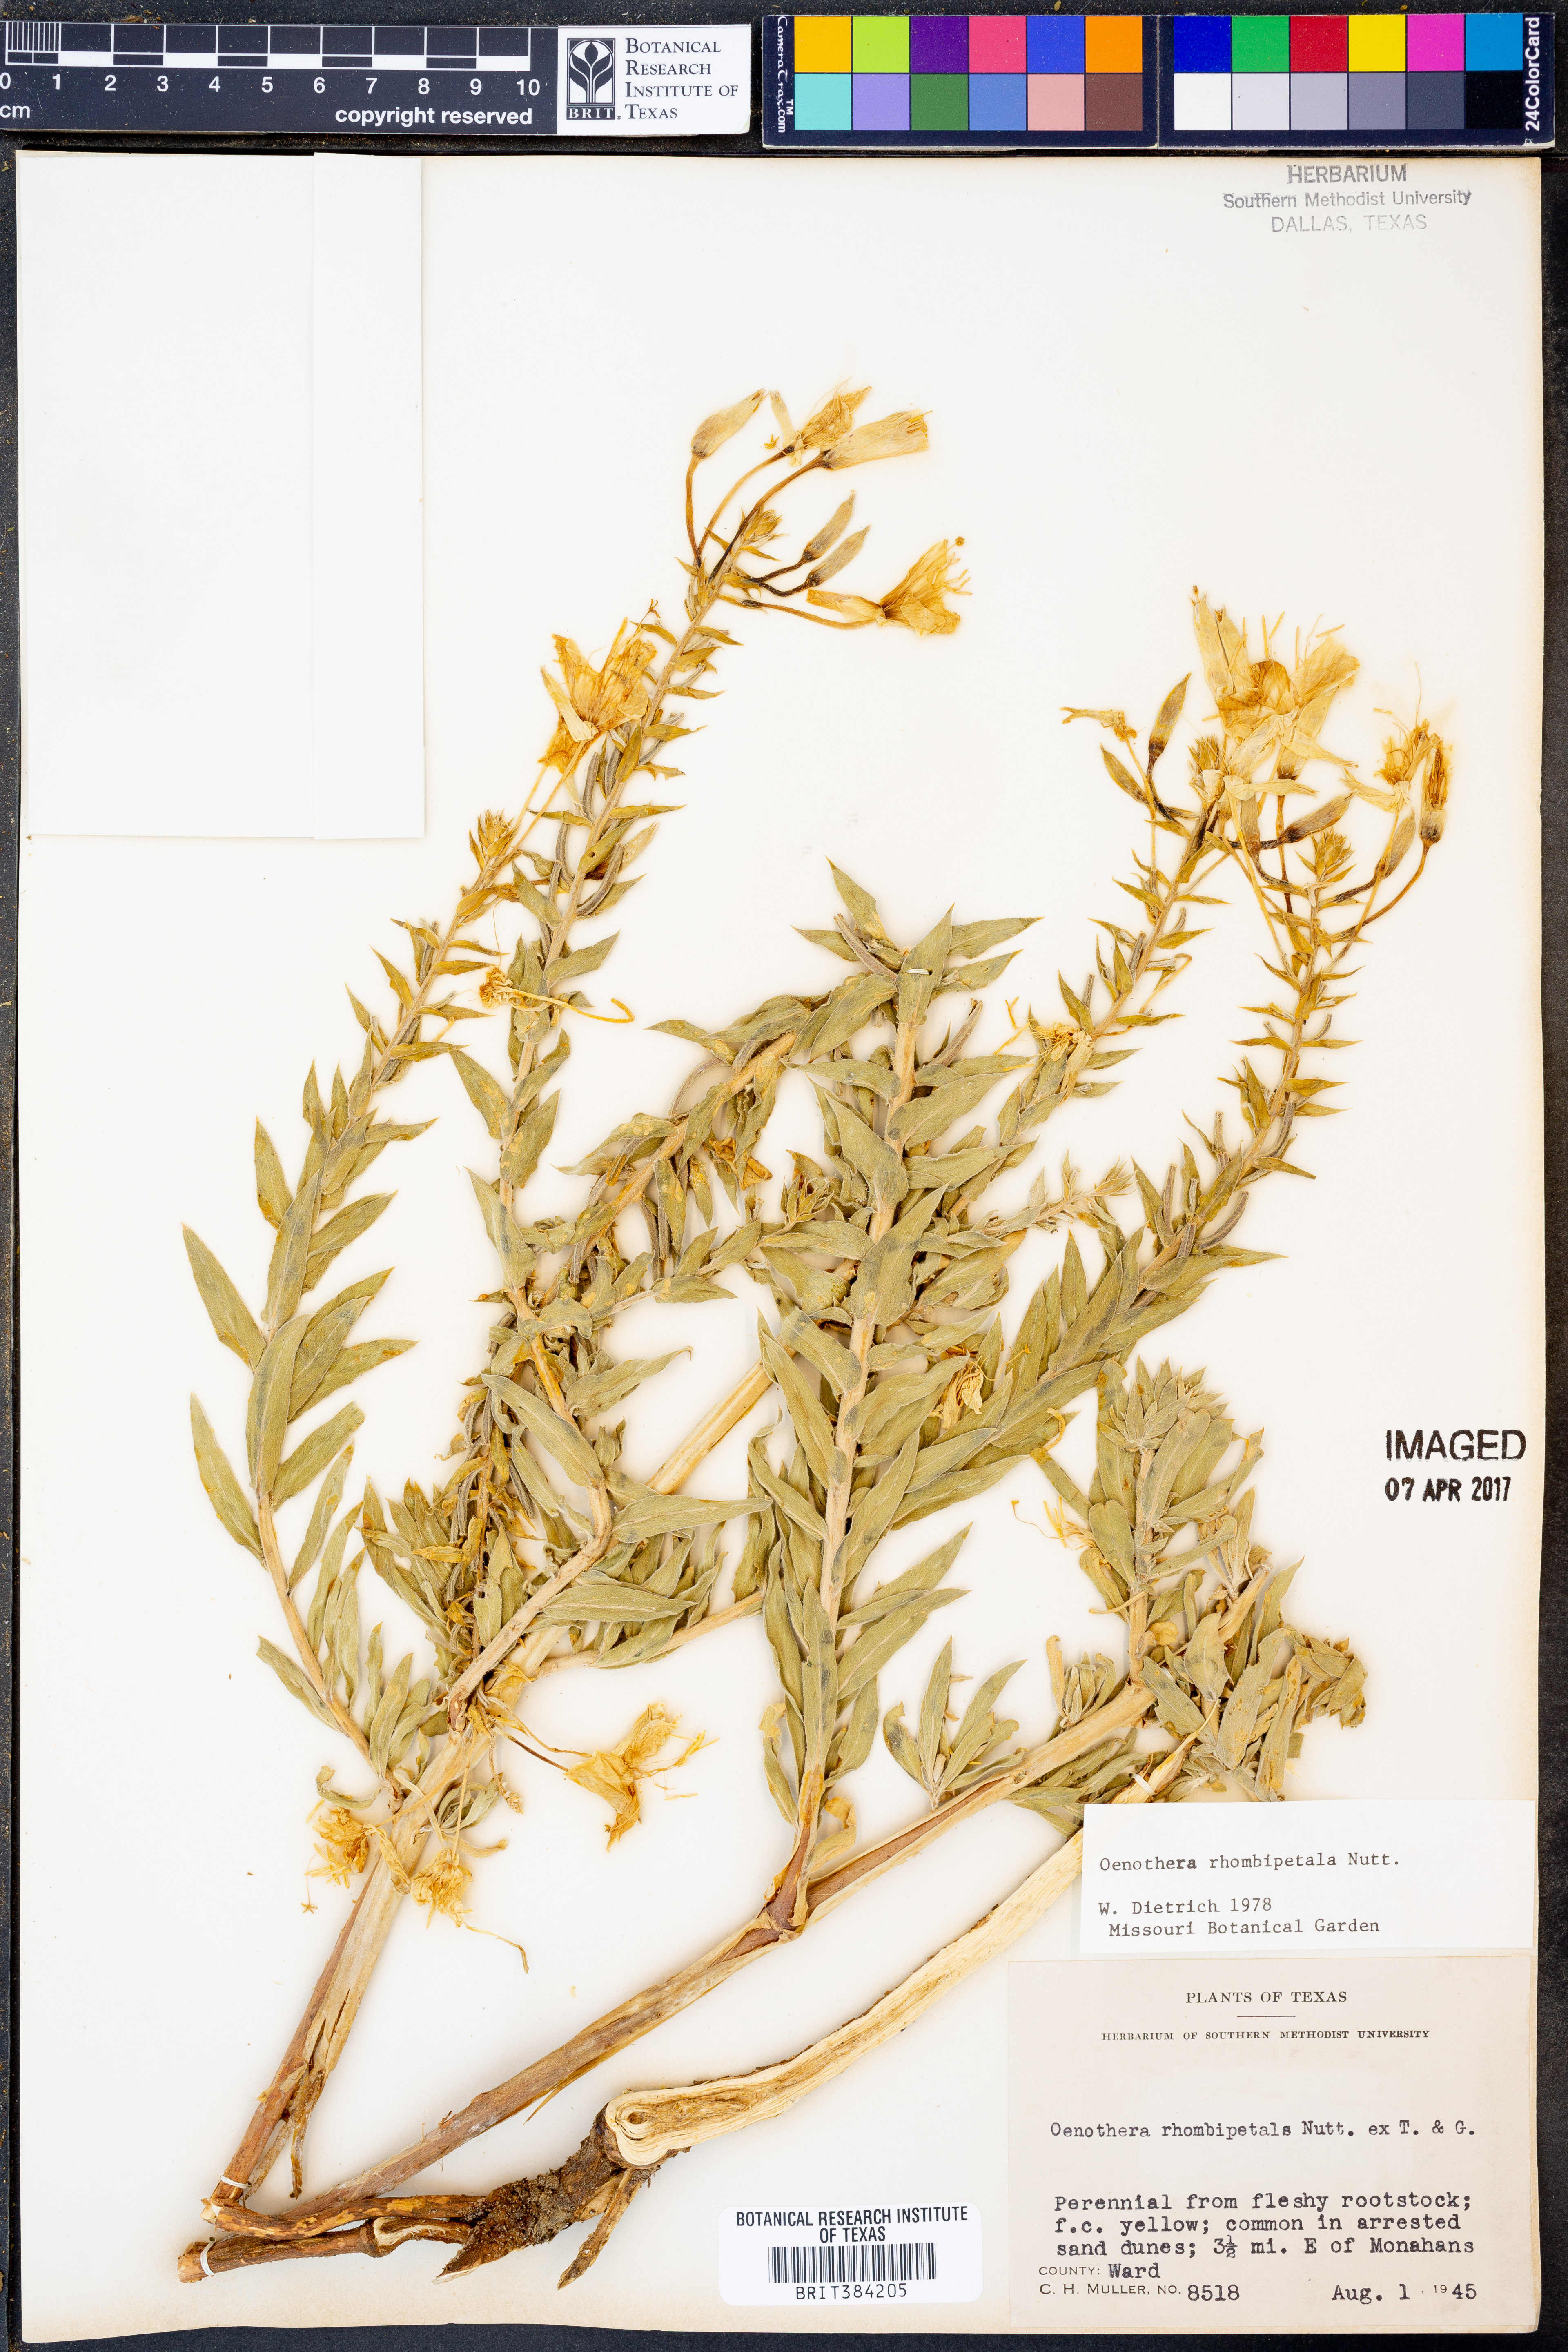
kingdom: Plantae
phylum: Tracheophyta
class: Magnoliopsida
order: Myrtales
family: Onagraceae
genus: Oenothera
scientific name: Oenothera rhombipetala
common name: Four-points evening-primrose
